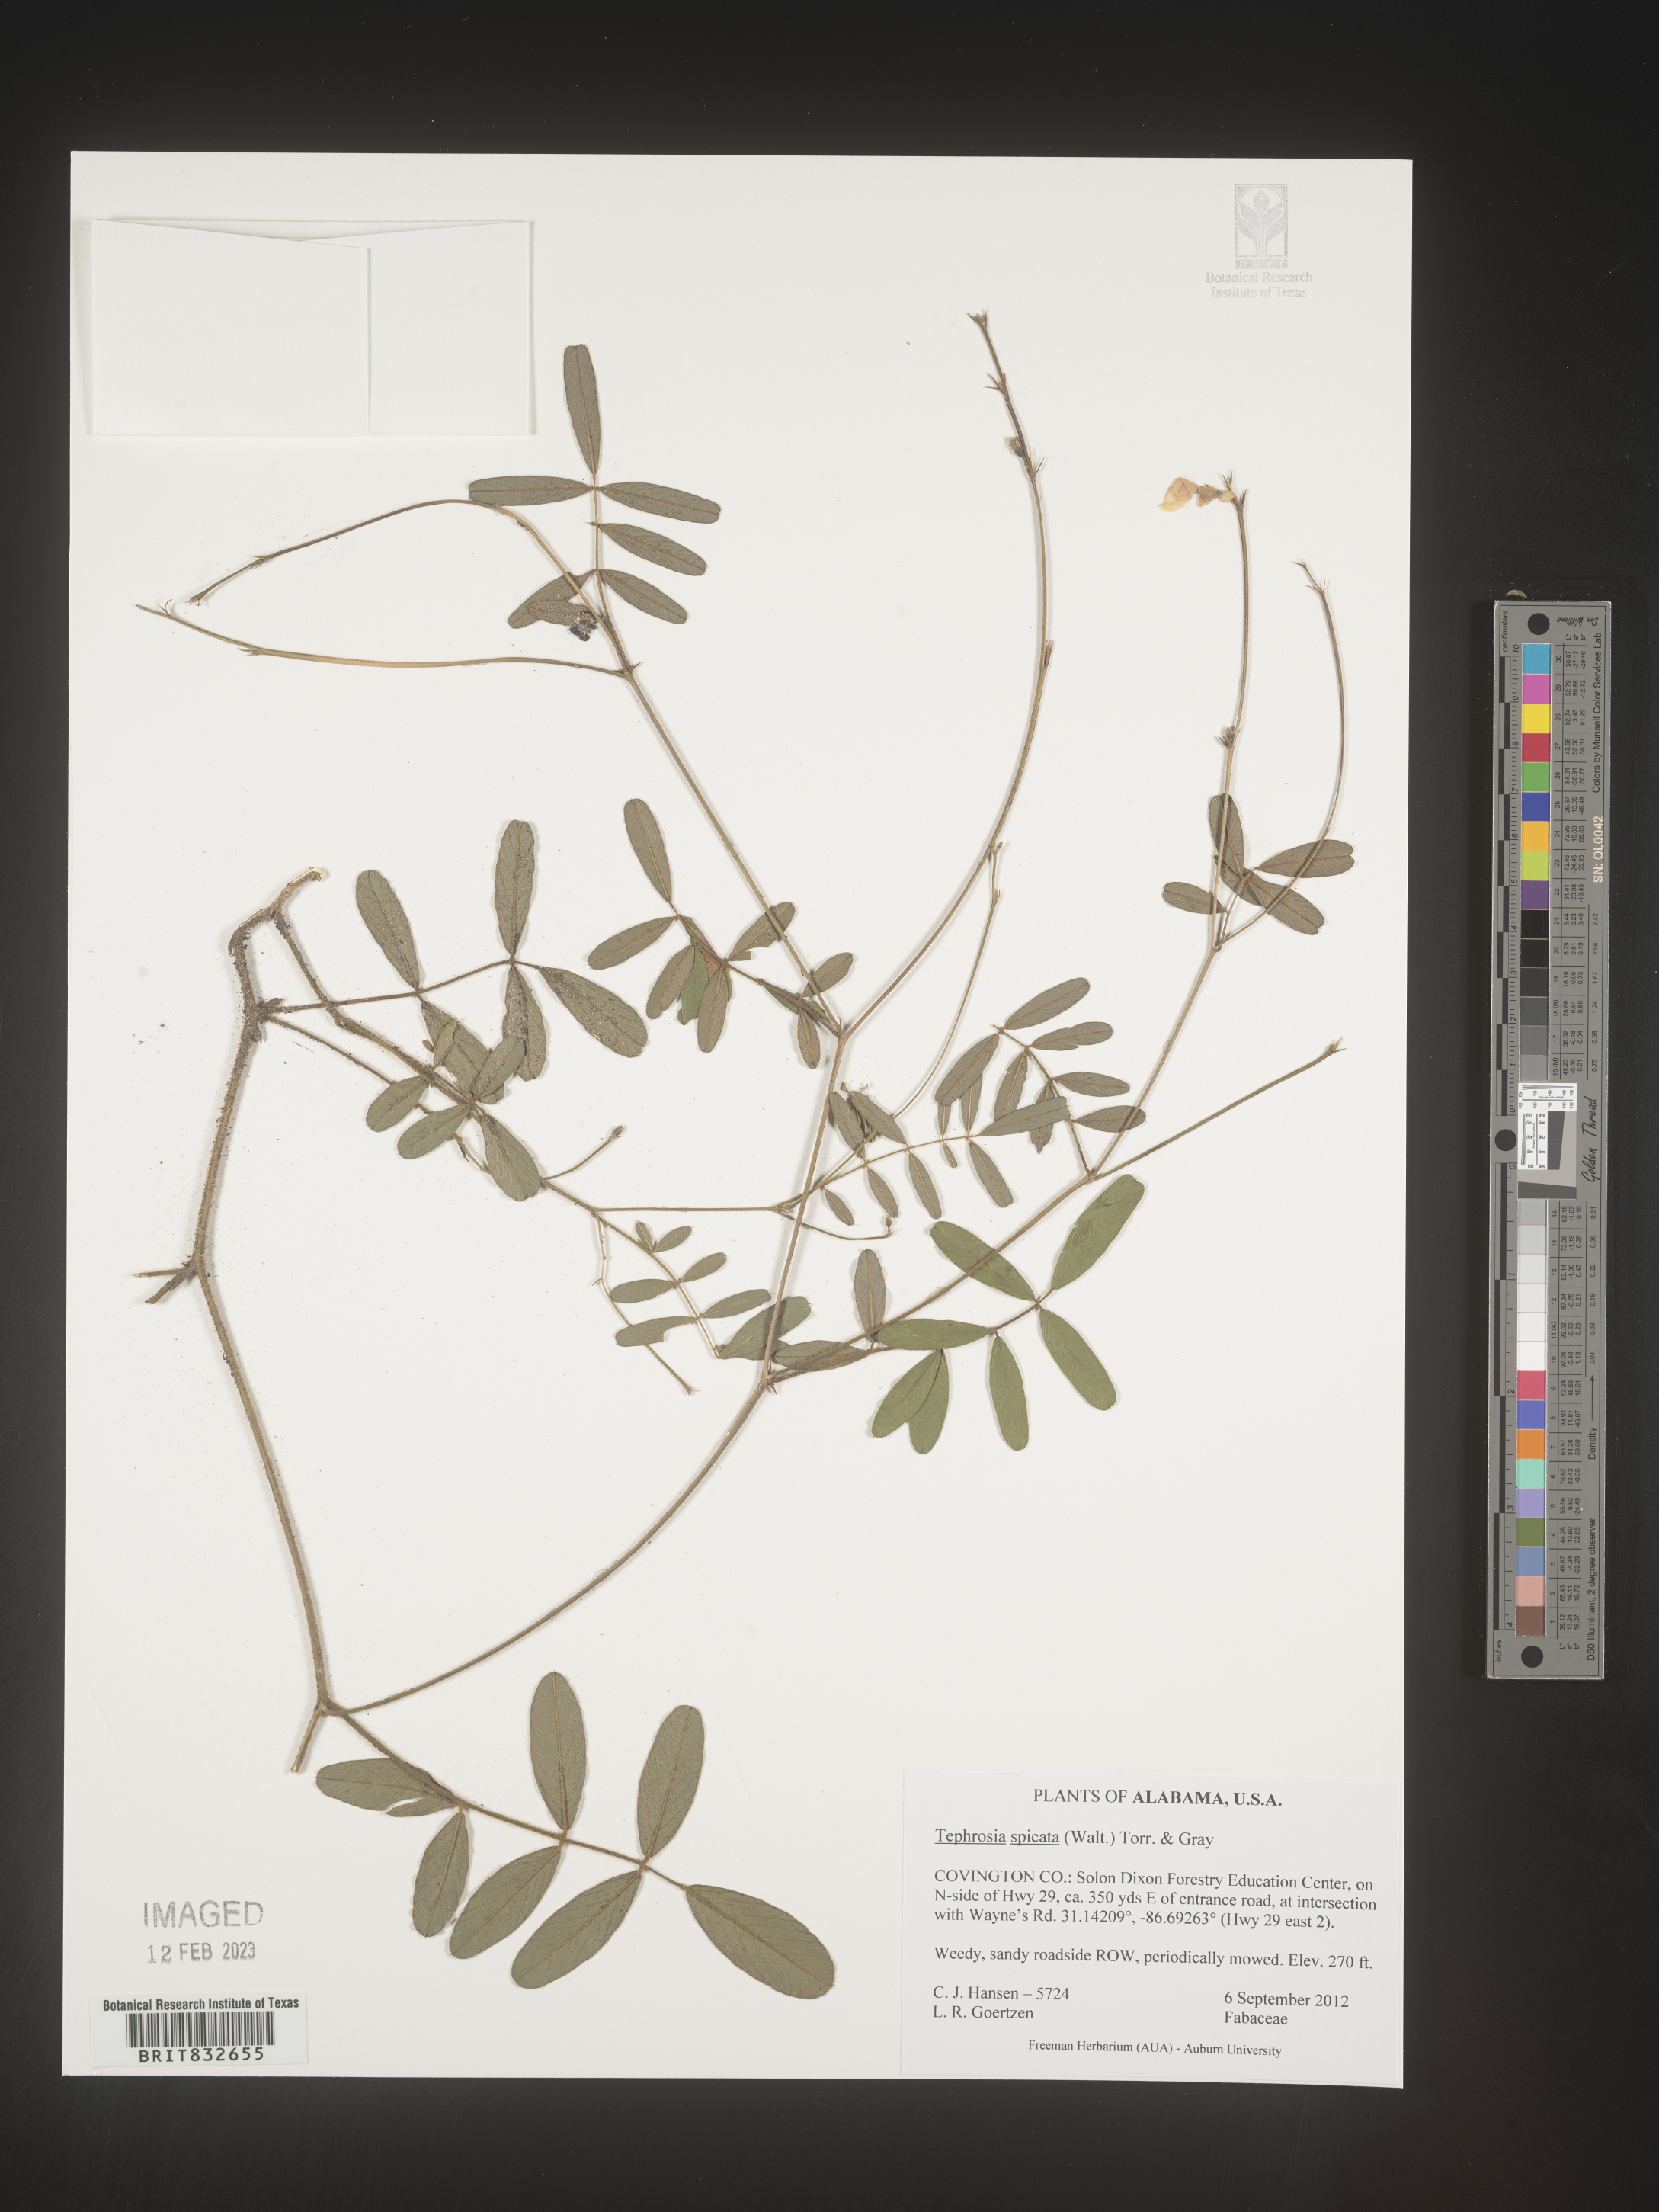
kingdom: Plantae
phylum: Tracheophyta
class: Magnoliopsida
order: Fabales
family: Fabaceae
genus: Tephrosia
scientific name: Tephrosia spicata
